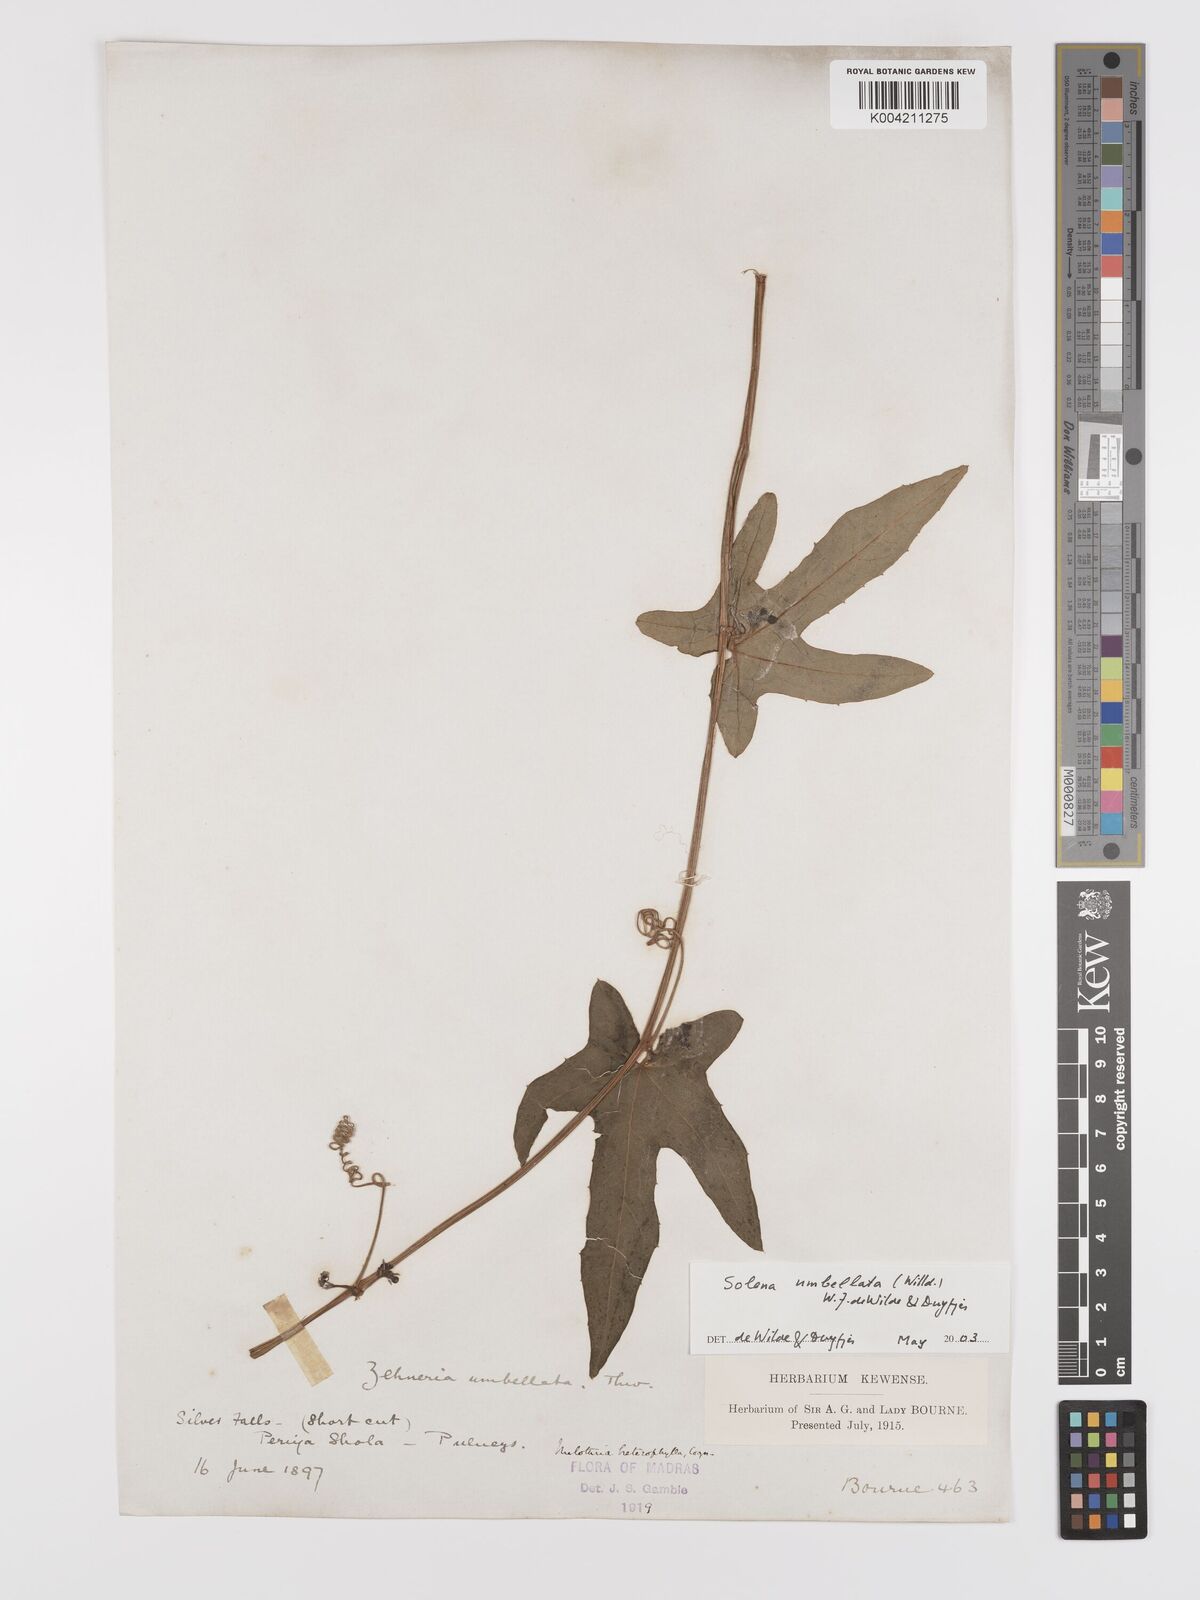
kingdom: Plantae
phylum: Tracheophyta
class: Magnoliopsida
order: Cucurbitales
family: Cucurbitaceae
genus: Solena
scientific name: Solena amplexicaulis
